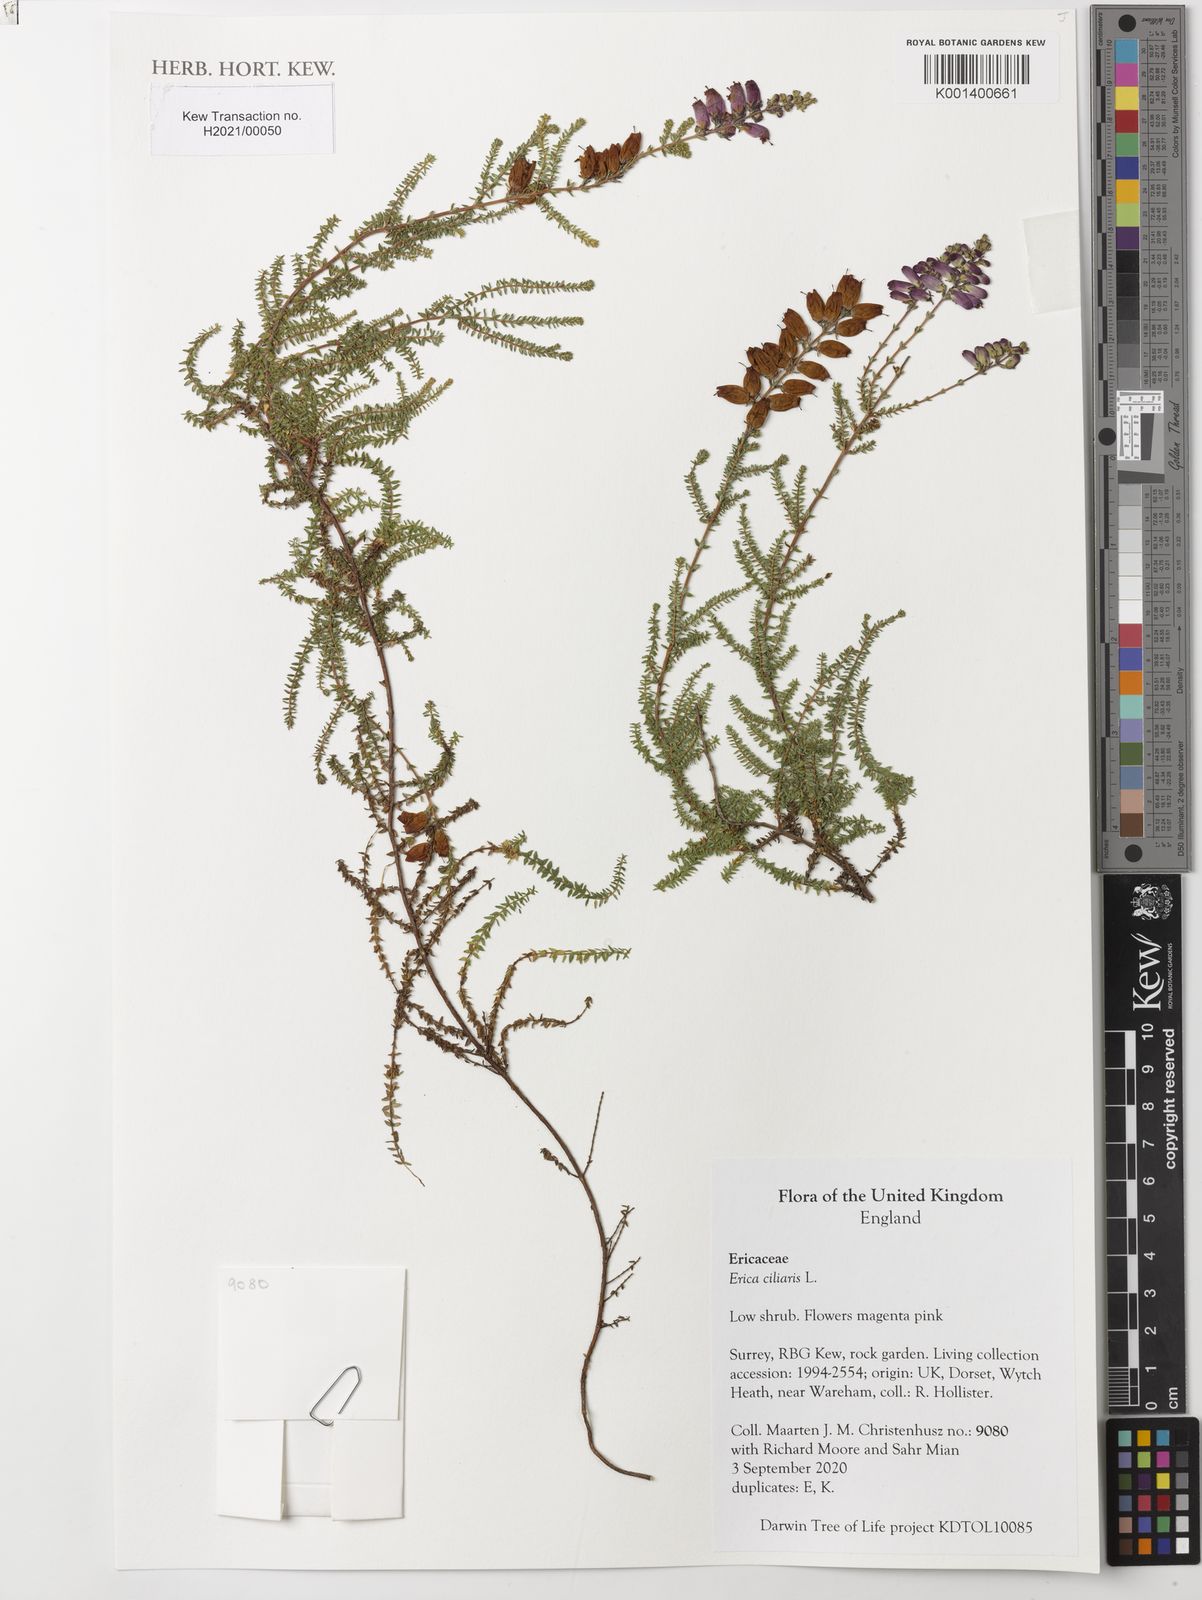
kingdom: Plantae
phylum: Tracheophyta
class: Magnoliopsida
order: Ericales
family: Ericaceae
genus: Erica
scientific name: Erica ciliaris
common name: Dorset heath
